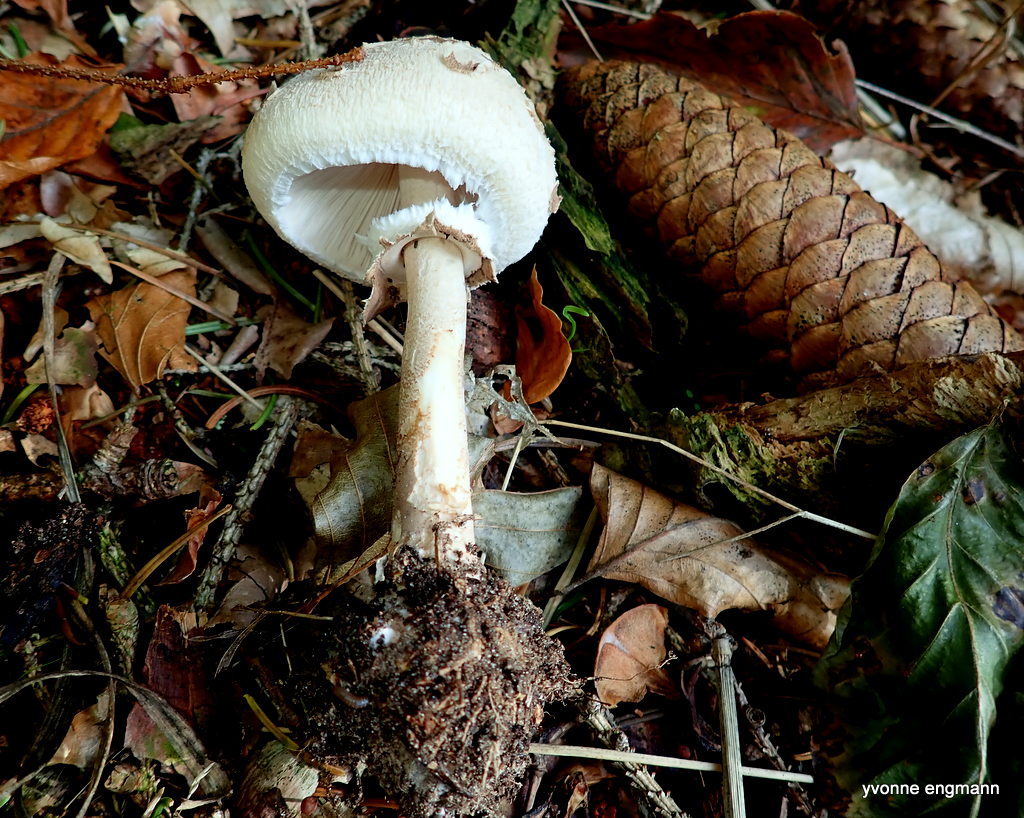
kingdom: Fungi
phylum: Basidiomycota
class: Agaricomycetes
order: Agaricales
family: Agaricaceae
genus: Macrolepiota
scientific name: Macrolepiota mastoidea
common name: puklet kæmpeparasolhat
